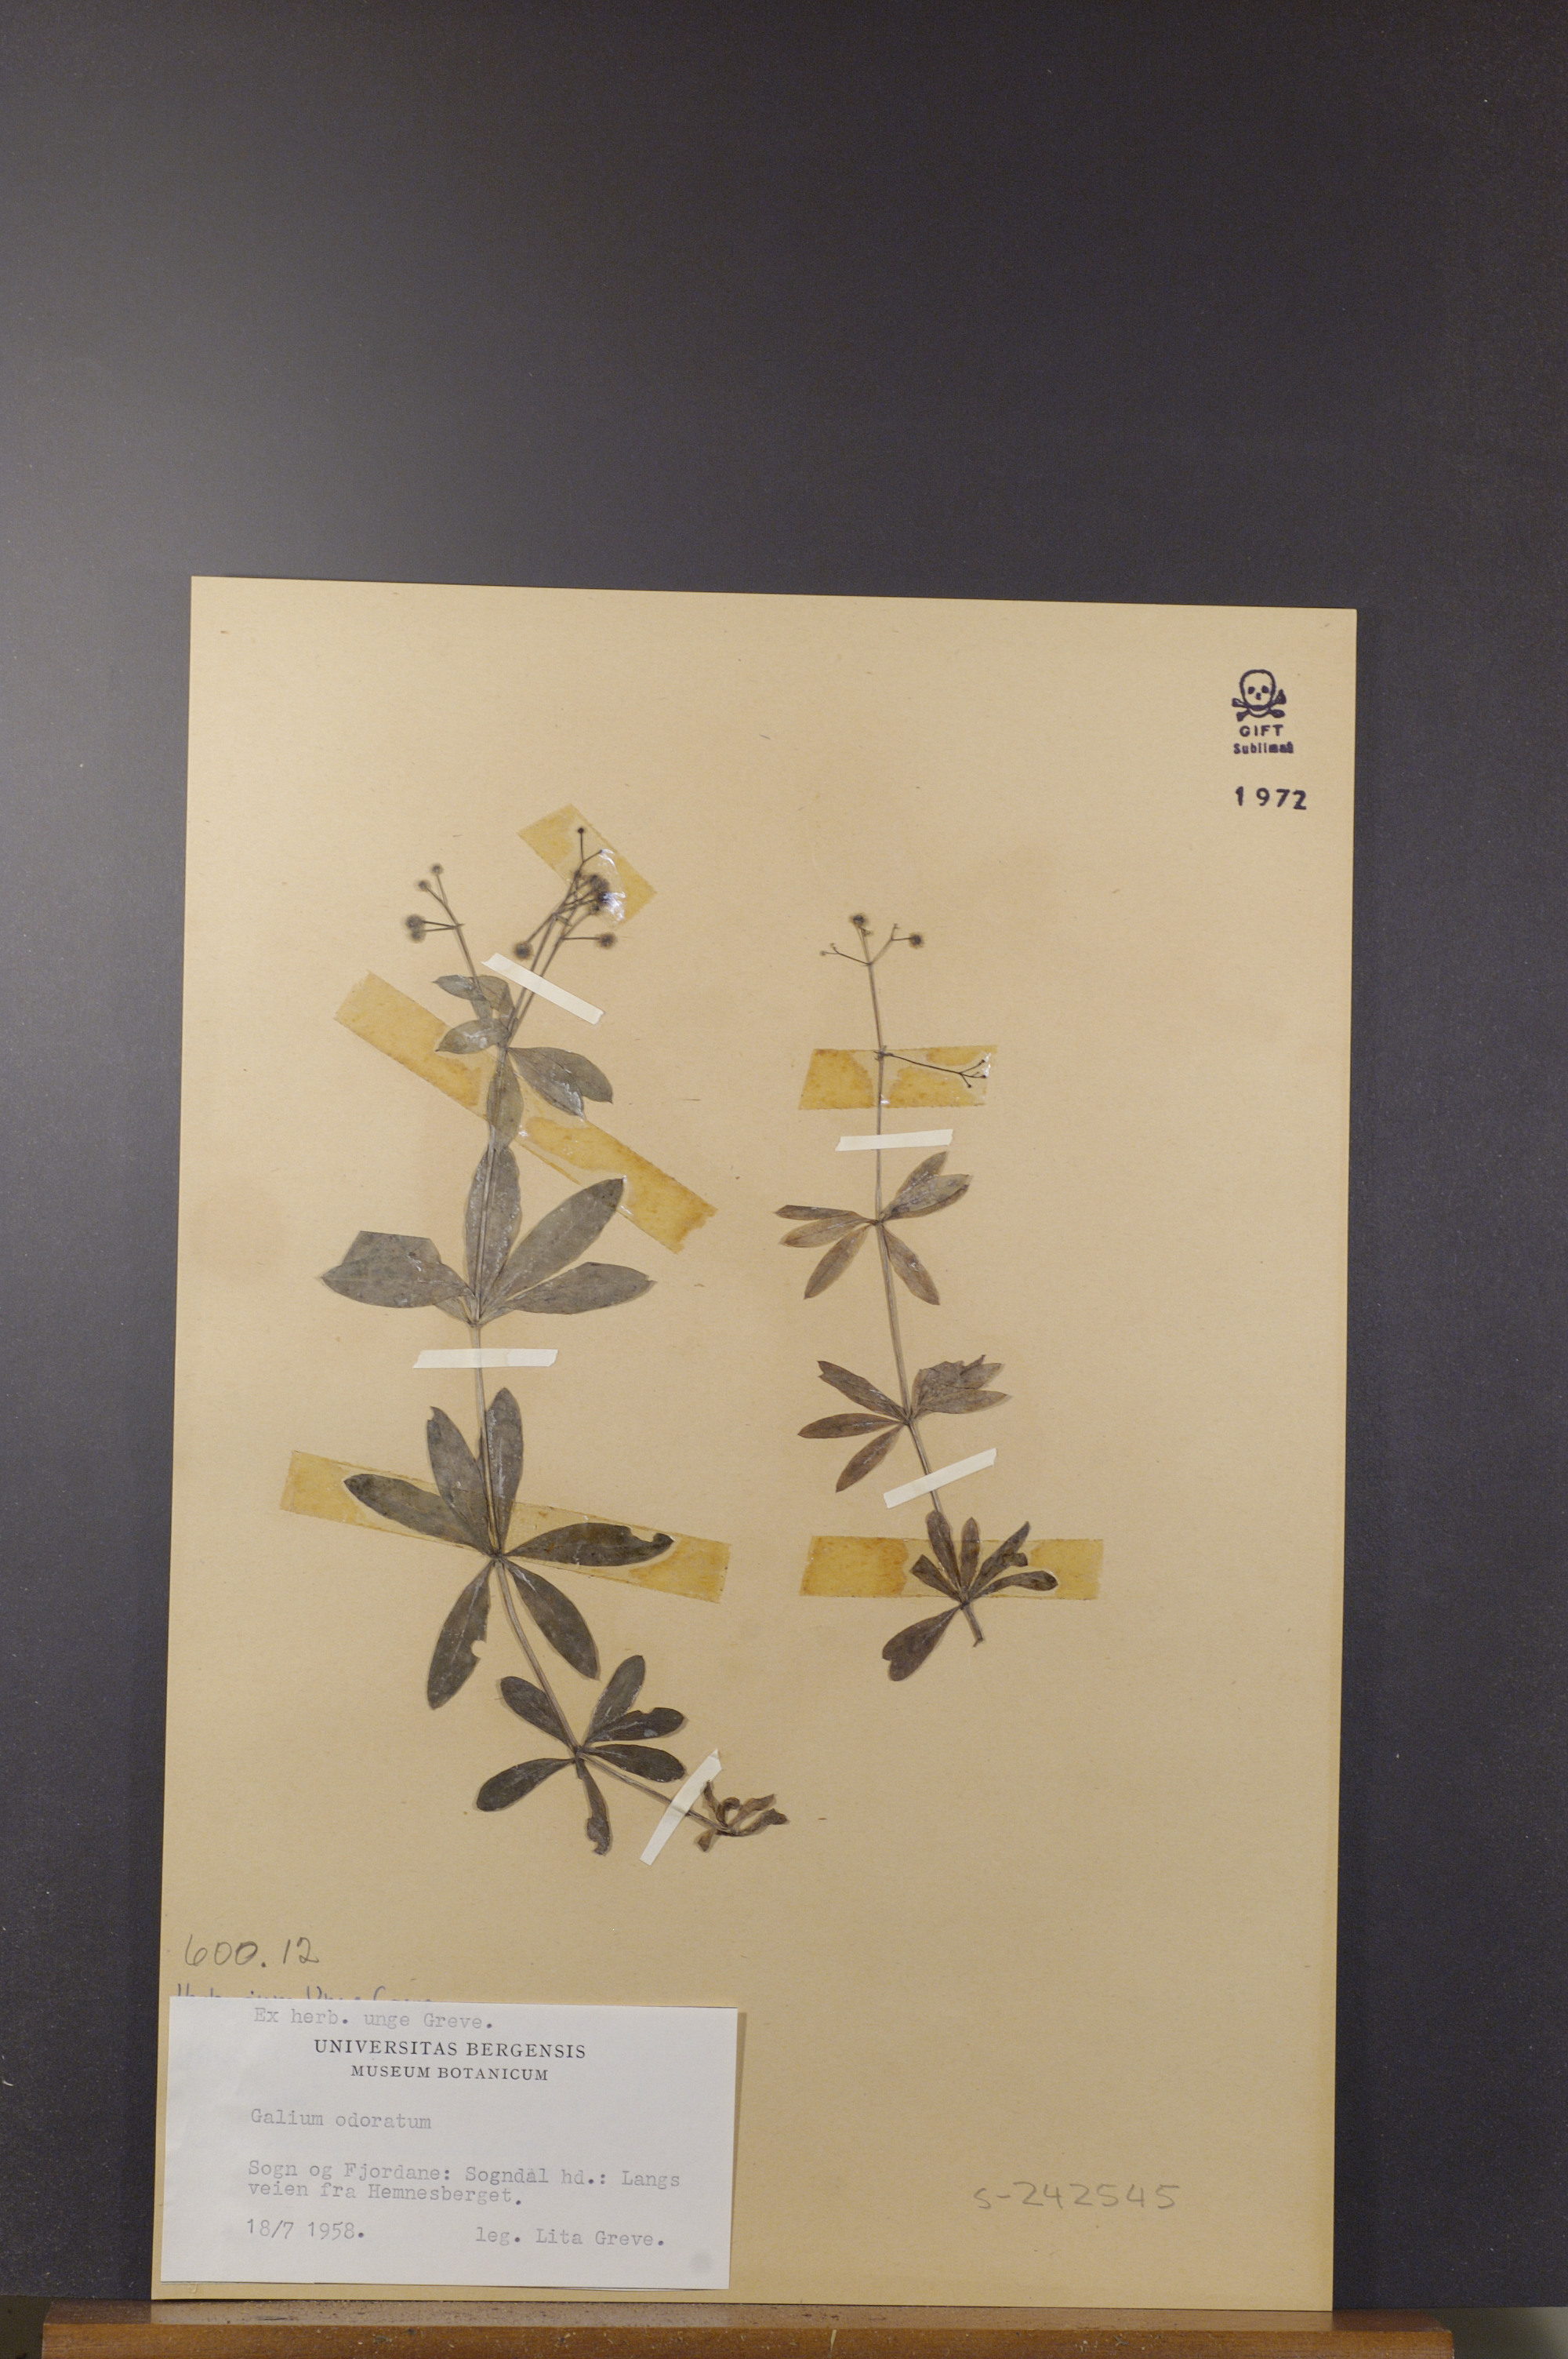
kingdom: Plantae
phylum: Tracheophyta
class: Magnoliopsida
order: Gentianales
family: Rubiaceae
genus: Galium
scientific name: Galium odoratum
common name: Sweet woodruff
